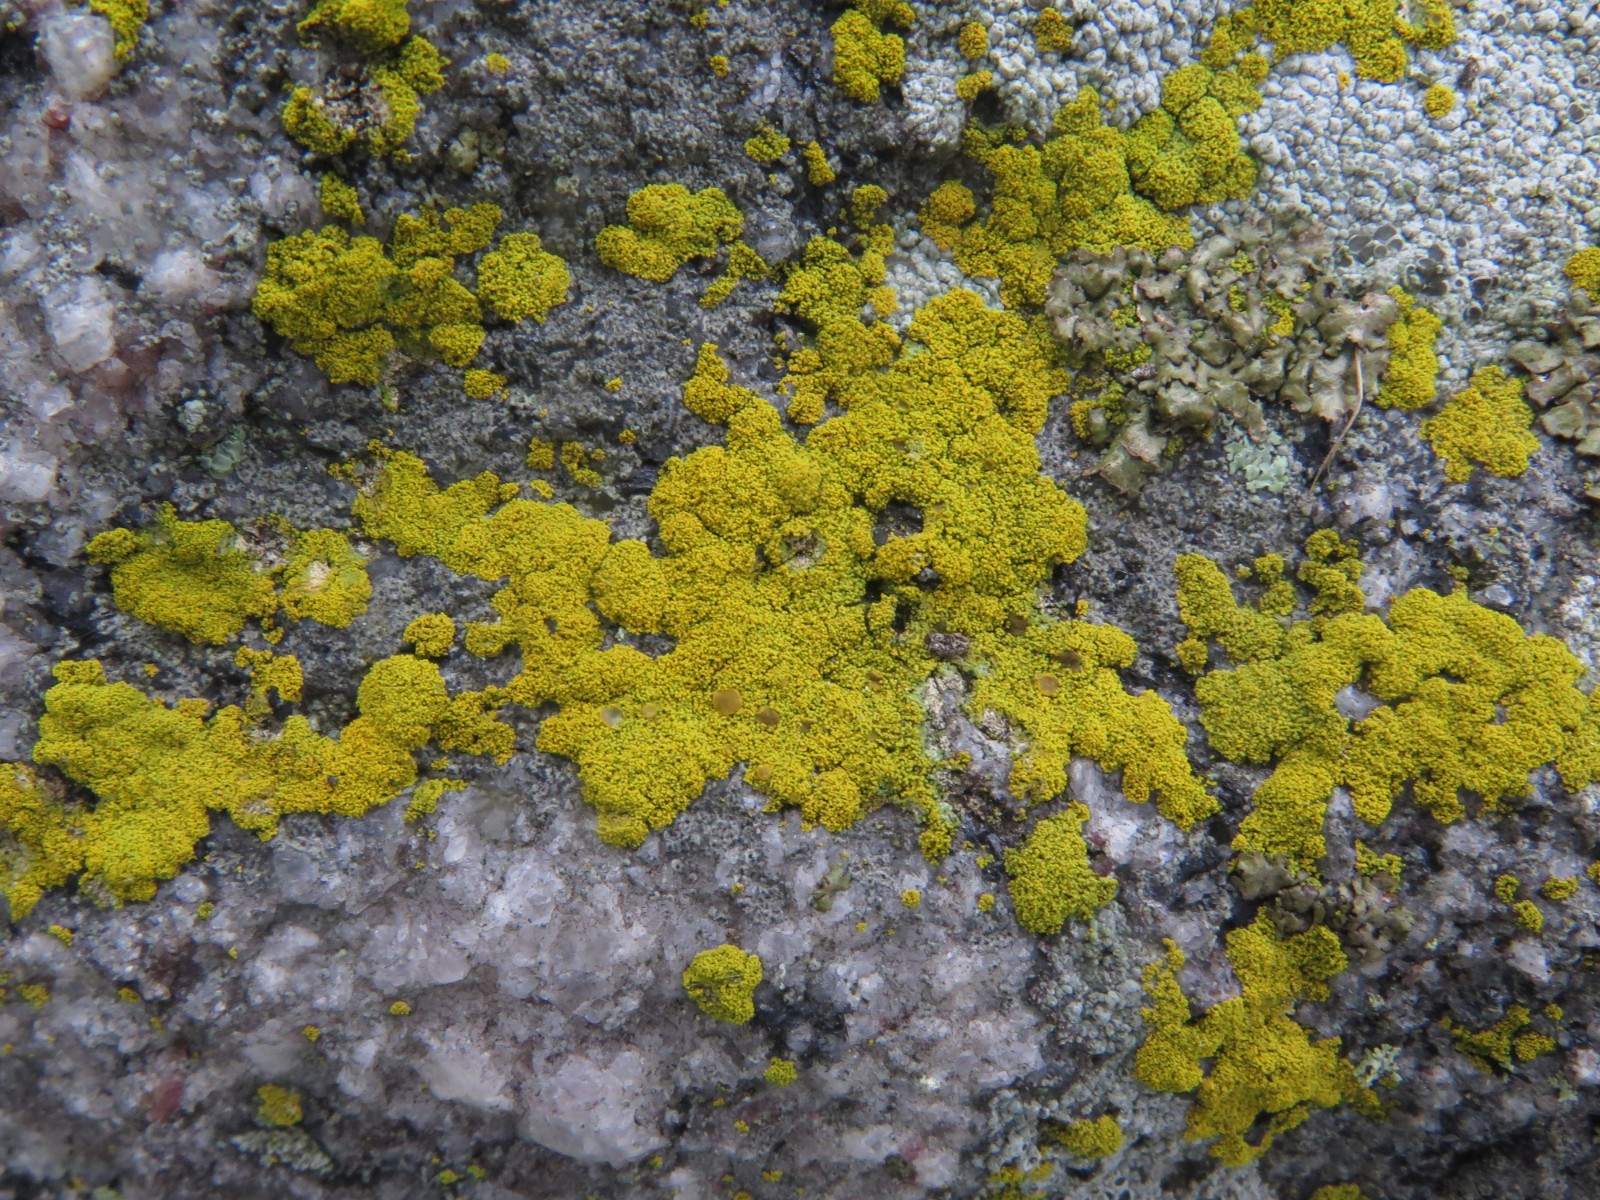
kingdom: Fungi
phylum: Ascomycota
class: Candelariomycetes
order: Candelariales
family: Candelariaceae
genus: Candelariella
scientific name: Candelariella coralliza
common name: pude-æggeblommelav
